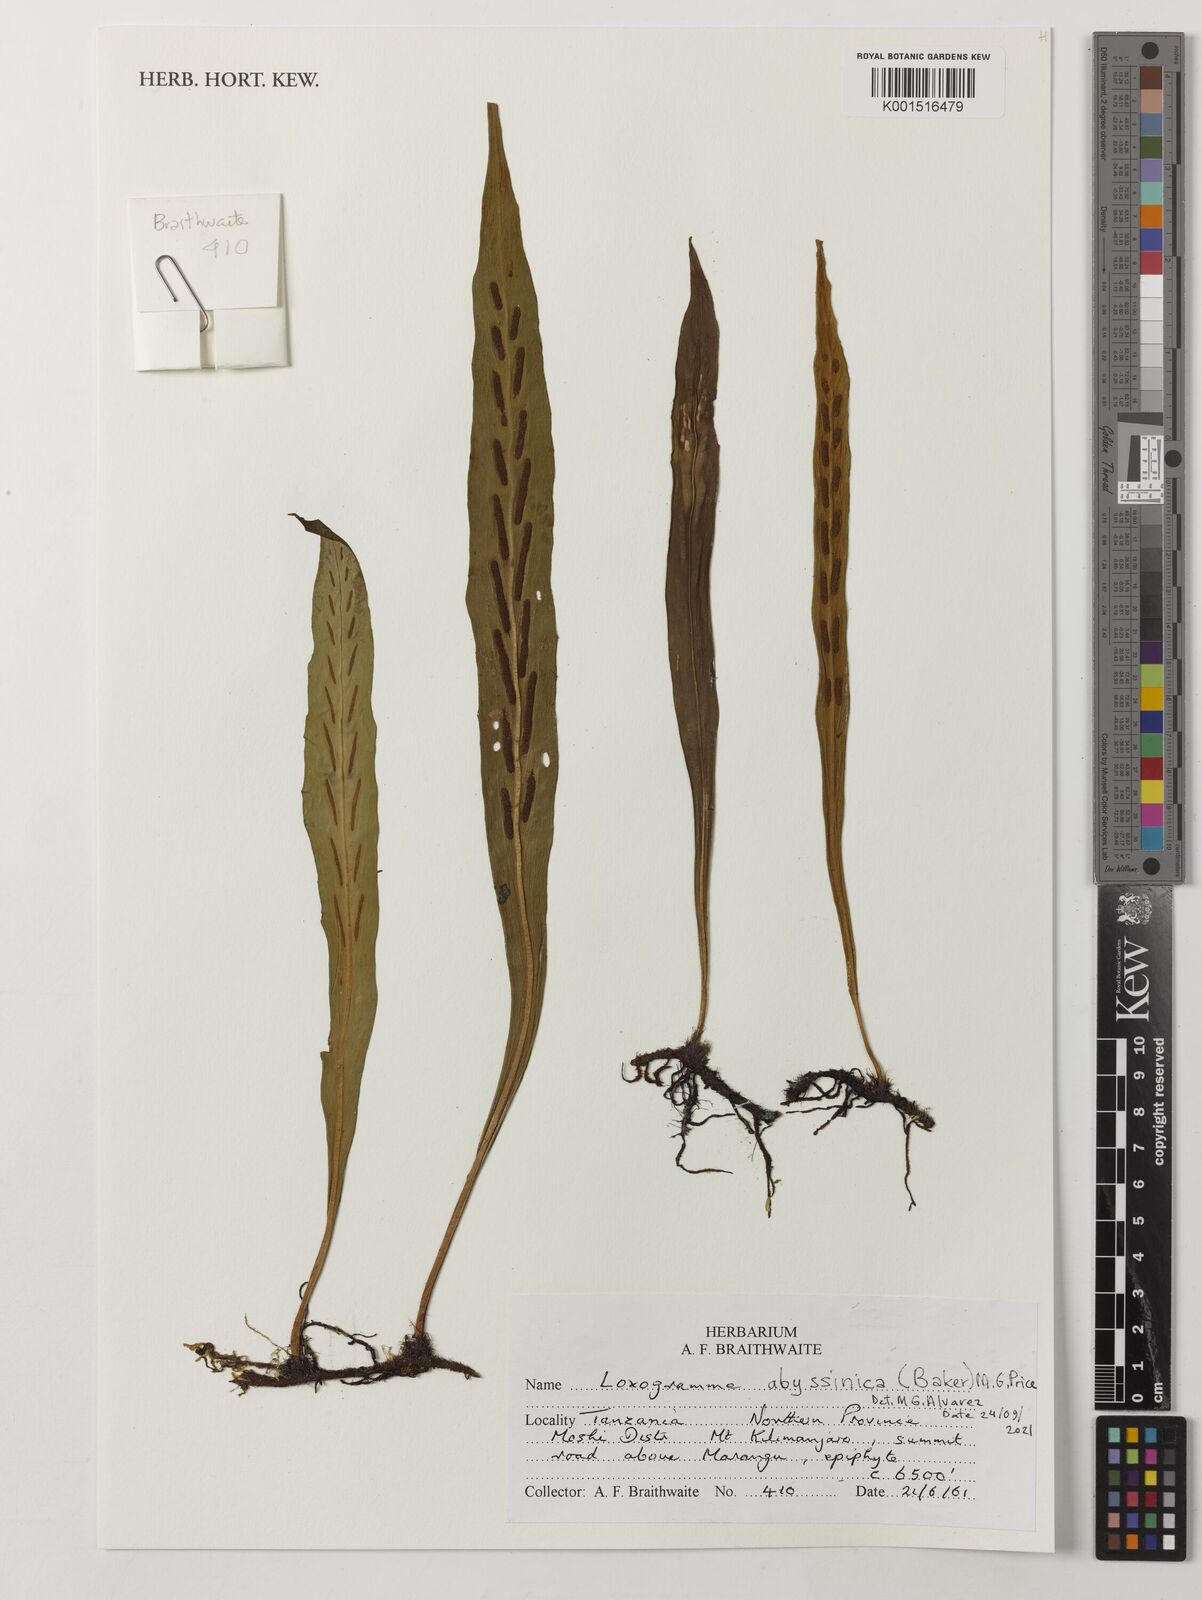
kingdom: Plantae
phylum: Tracheophyta
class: Polypodiopsida
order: Polypodiales
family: Polypodiaceae
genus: Loxogramme
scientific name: Loxogramme abyssinica
